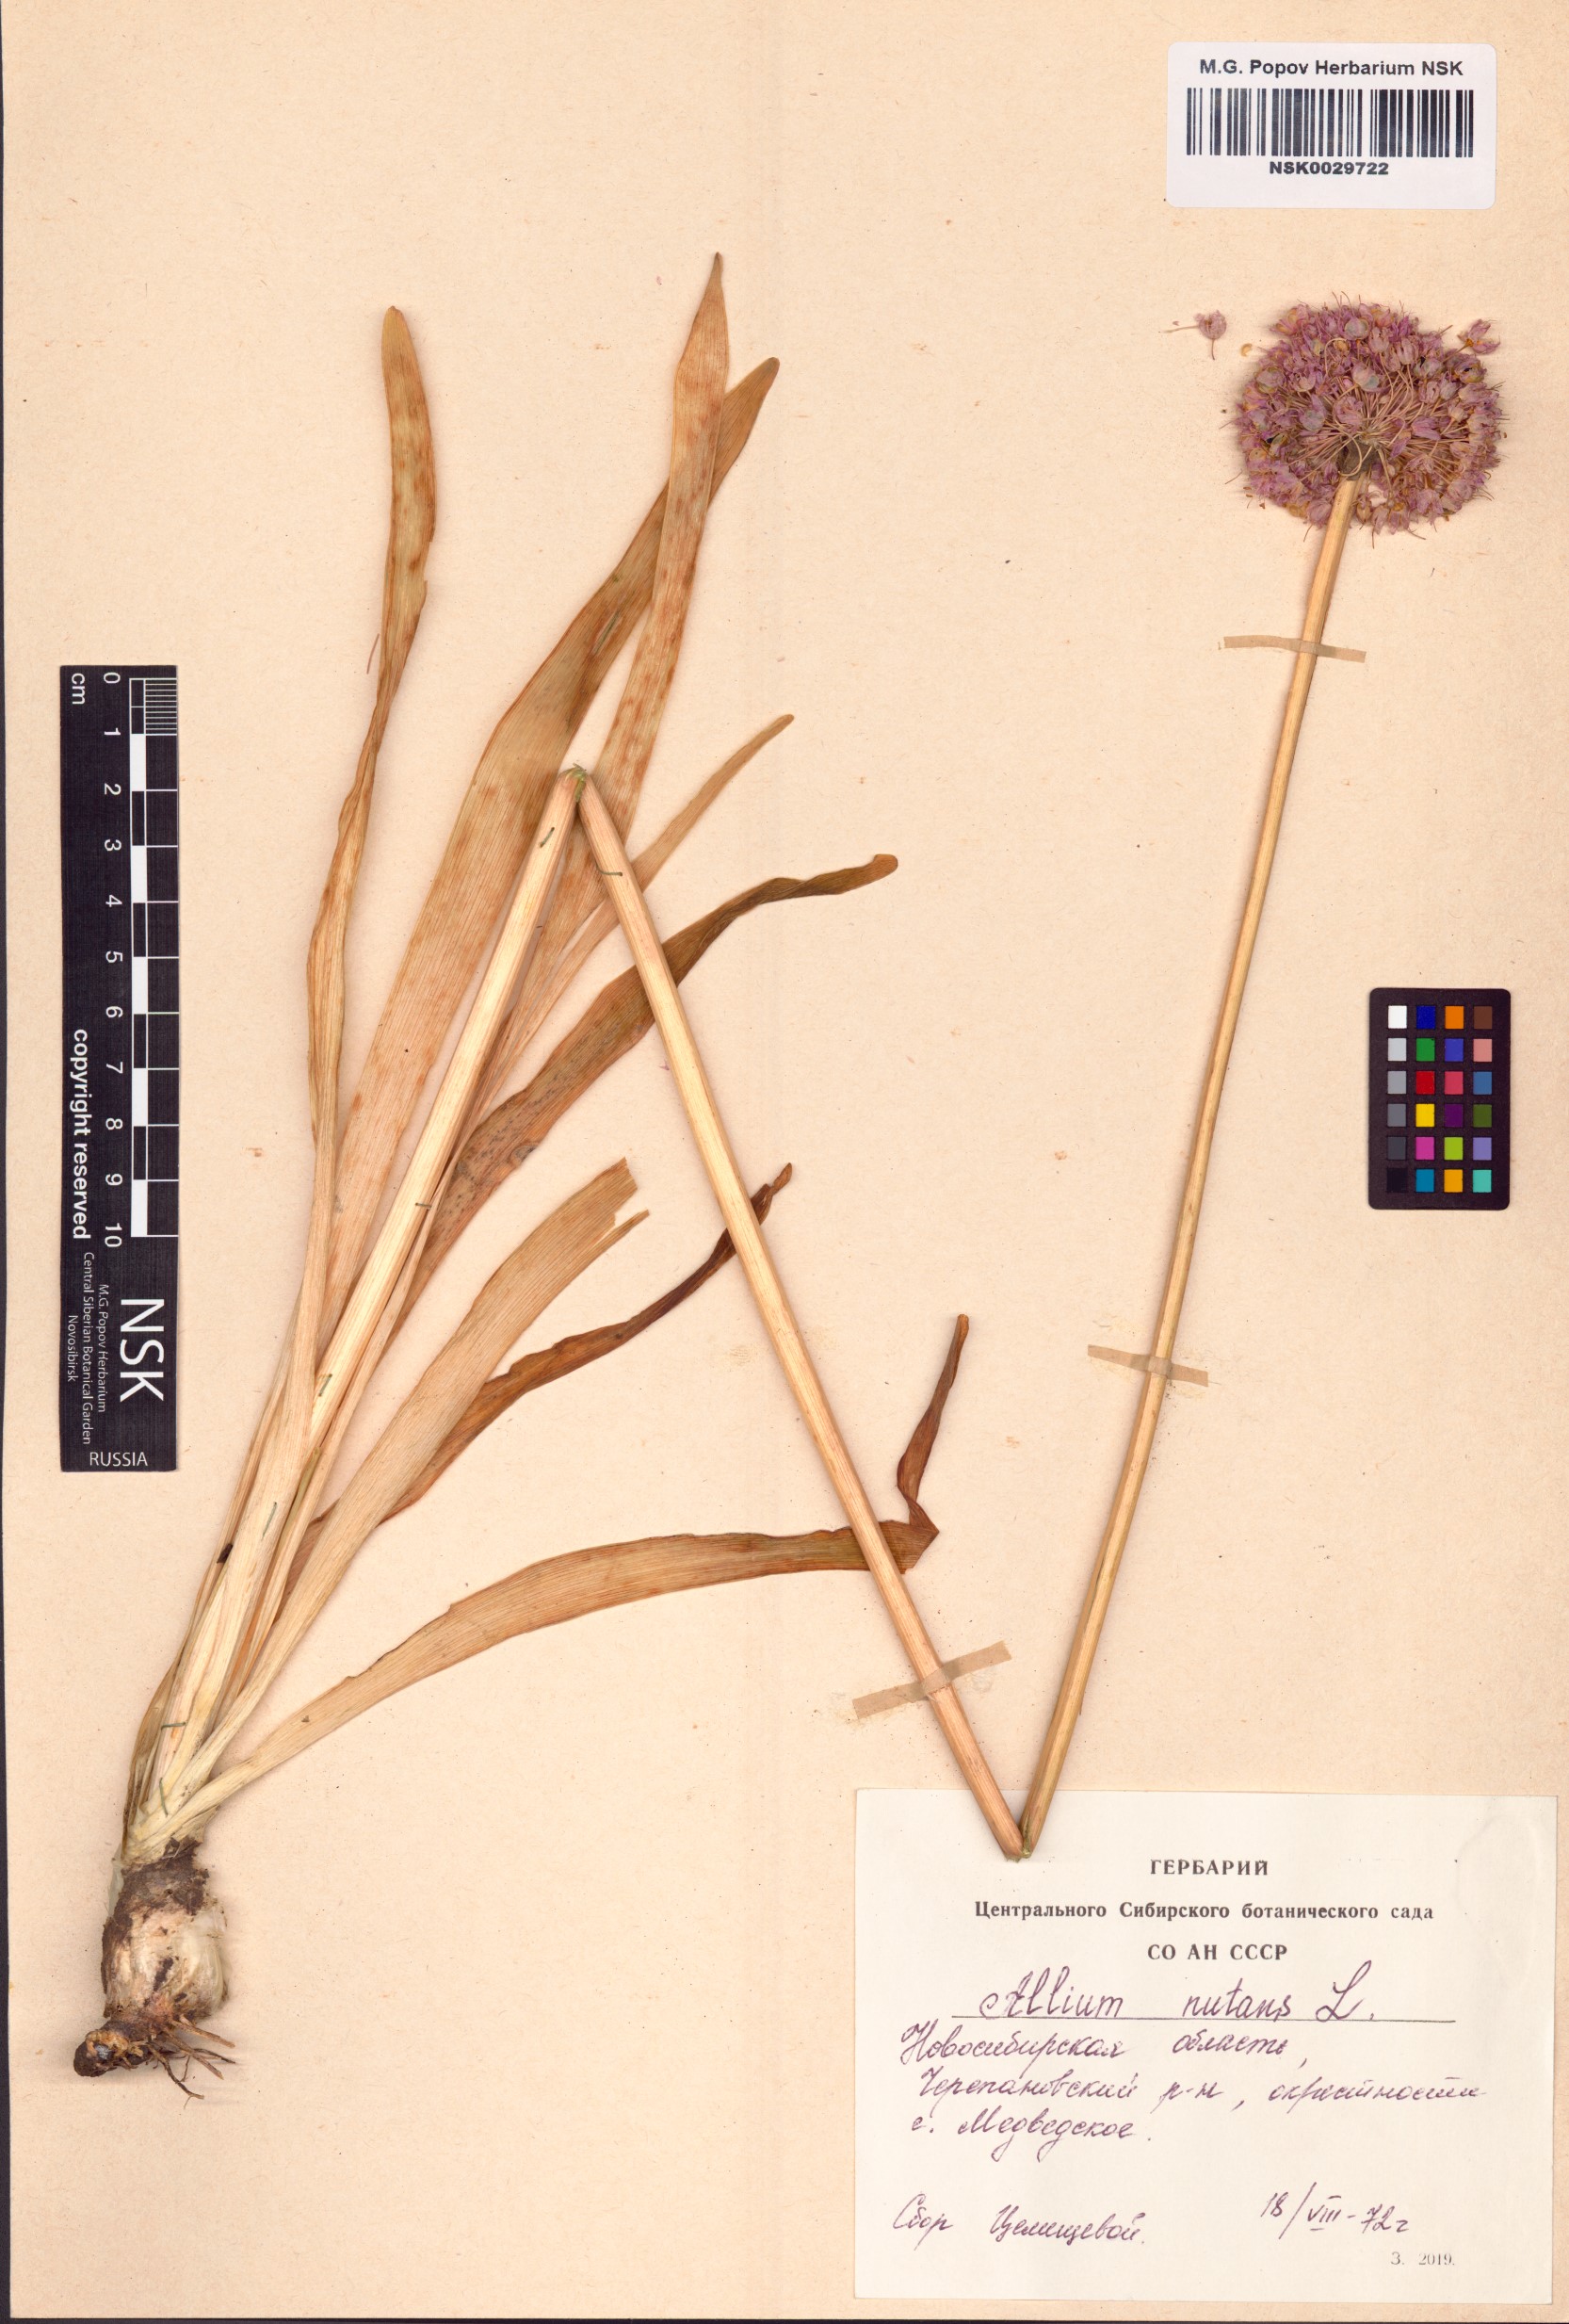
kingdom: Plantae
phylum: Tracheophyta
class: Liliopsida
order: Asparagales
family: Amaryllidaceae
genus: Allium
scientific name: Allium nutans
